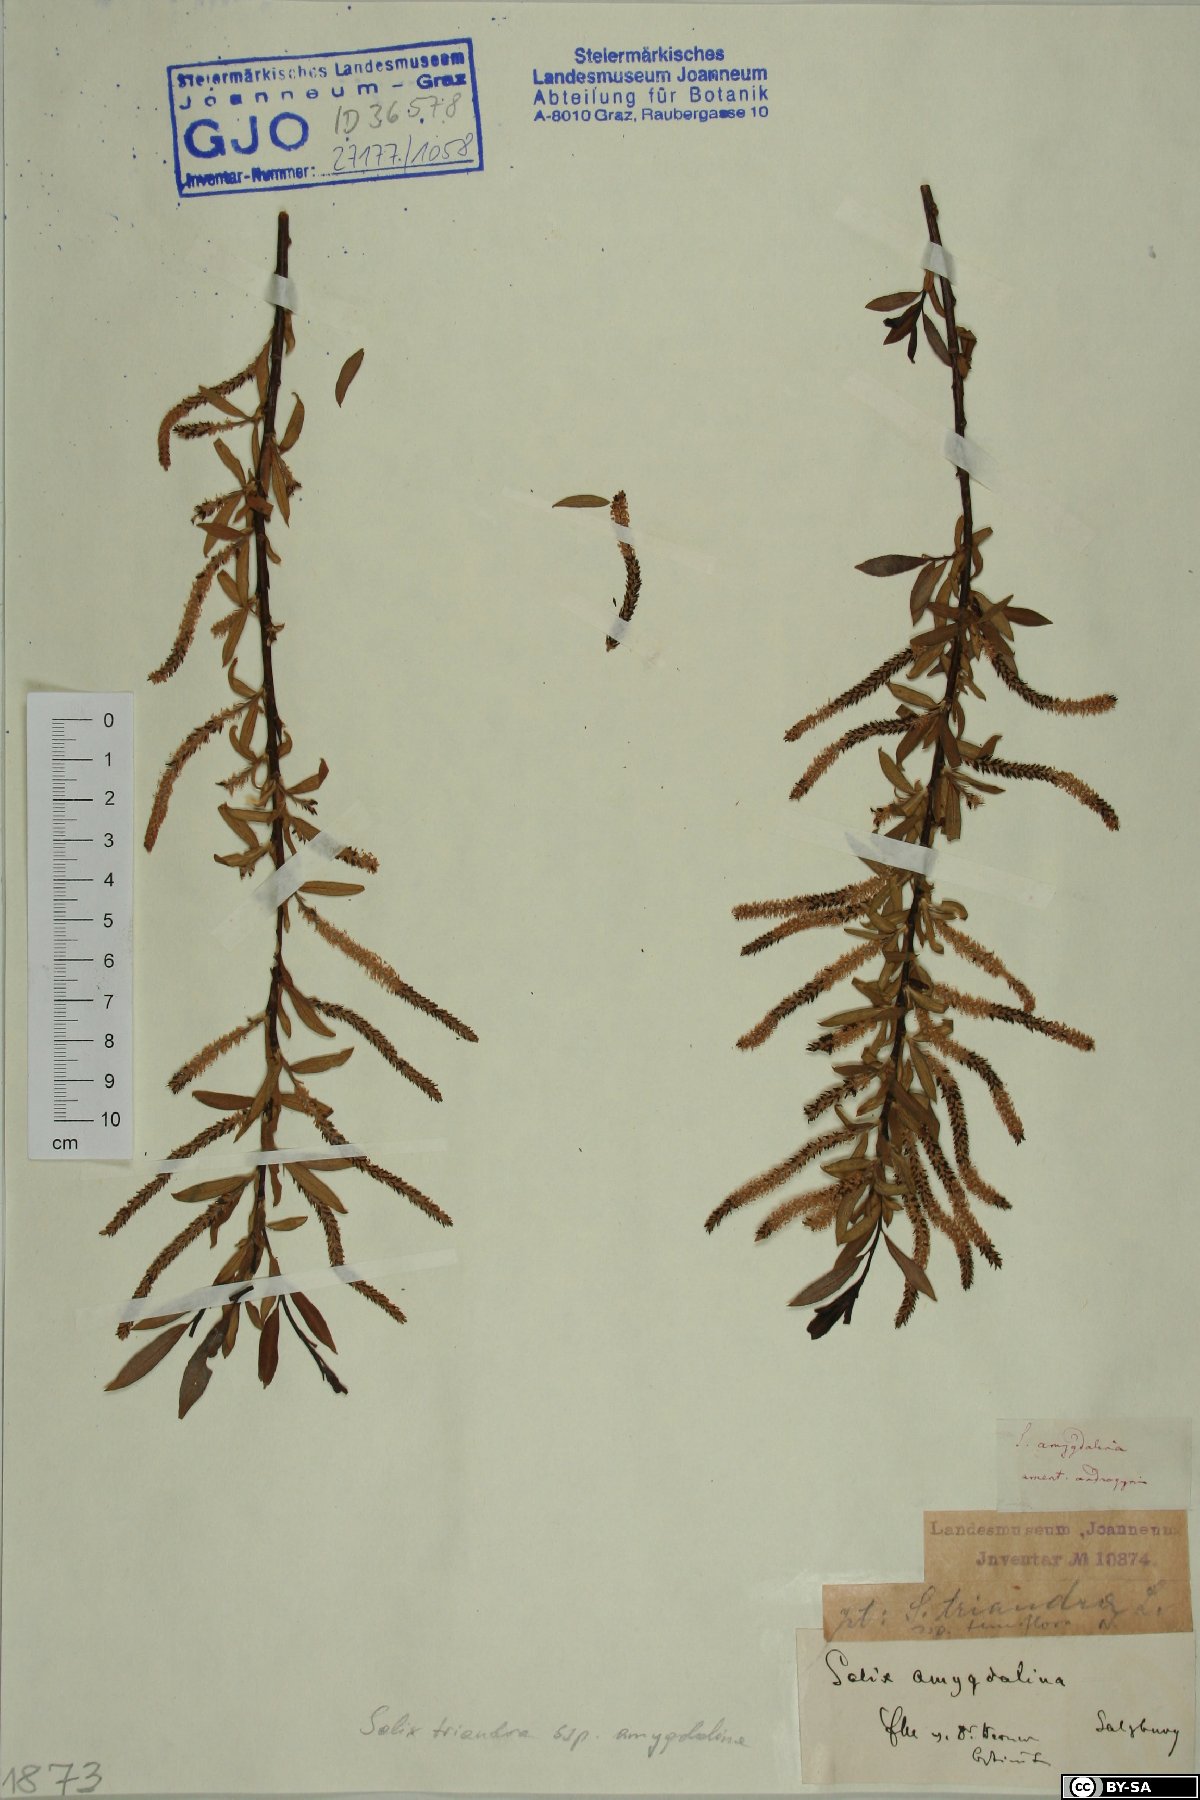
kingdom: Plantae
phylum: Tracheophyta
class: Magnoliopsida
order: Malpighiales
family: Salicaceae
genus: Salix
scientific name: Salix triandra
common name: Almond willow
